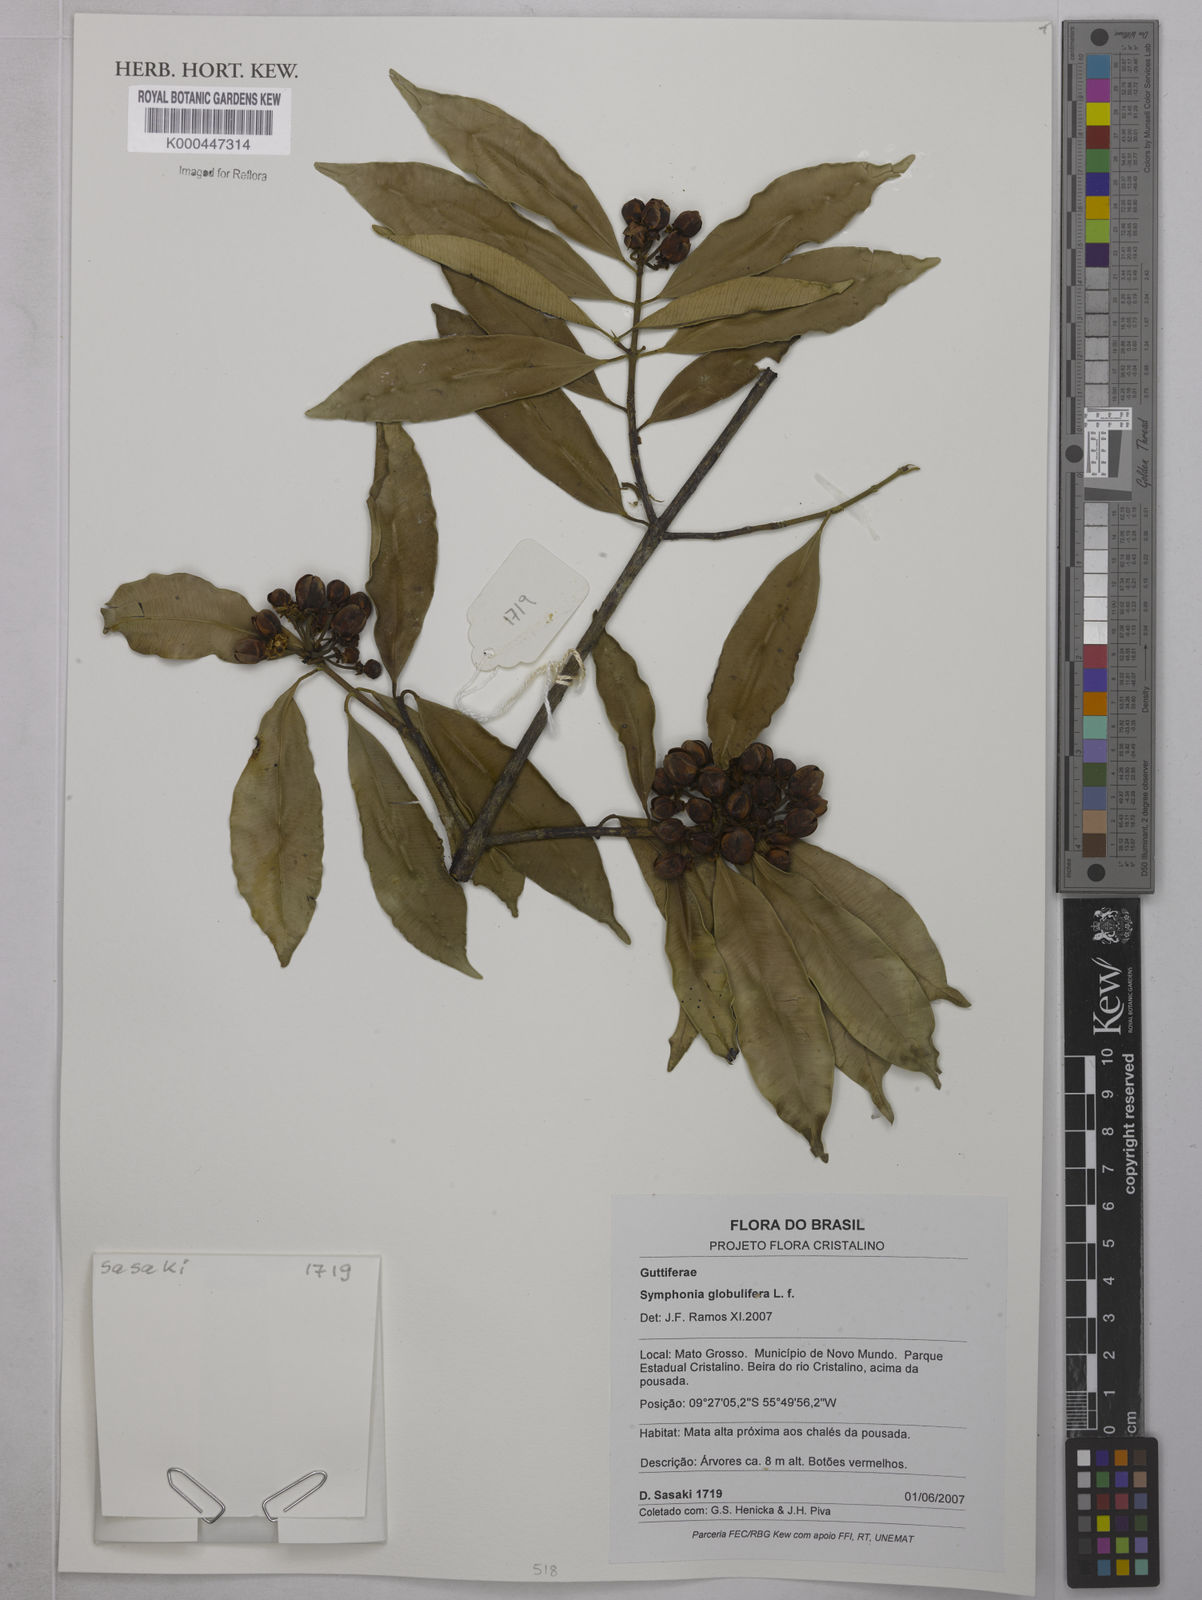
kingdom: Plantae
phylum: Tracheophyta
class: Magnoliopsida
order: Malpighiales
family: Clusiaceae
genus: Symphonia
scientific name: Symphonia globulifera
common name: Boarwood
